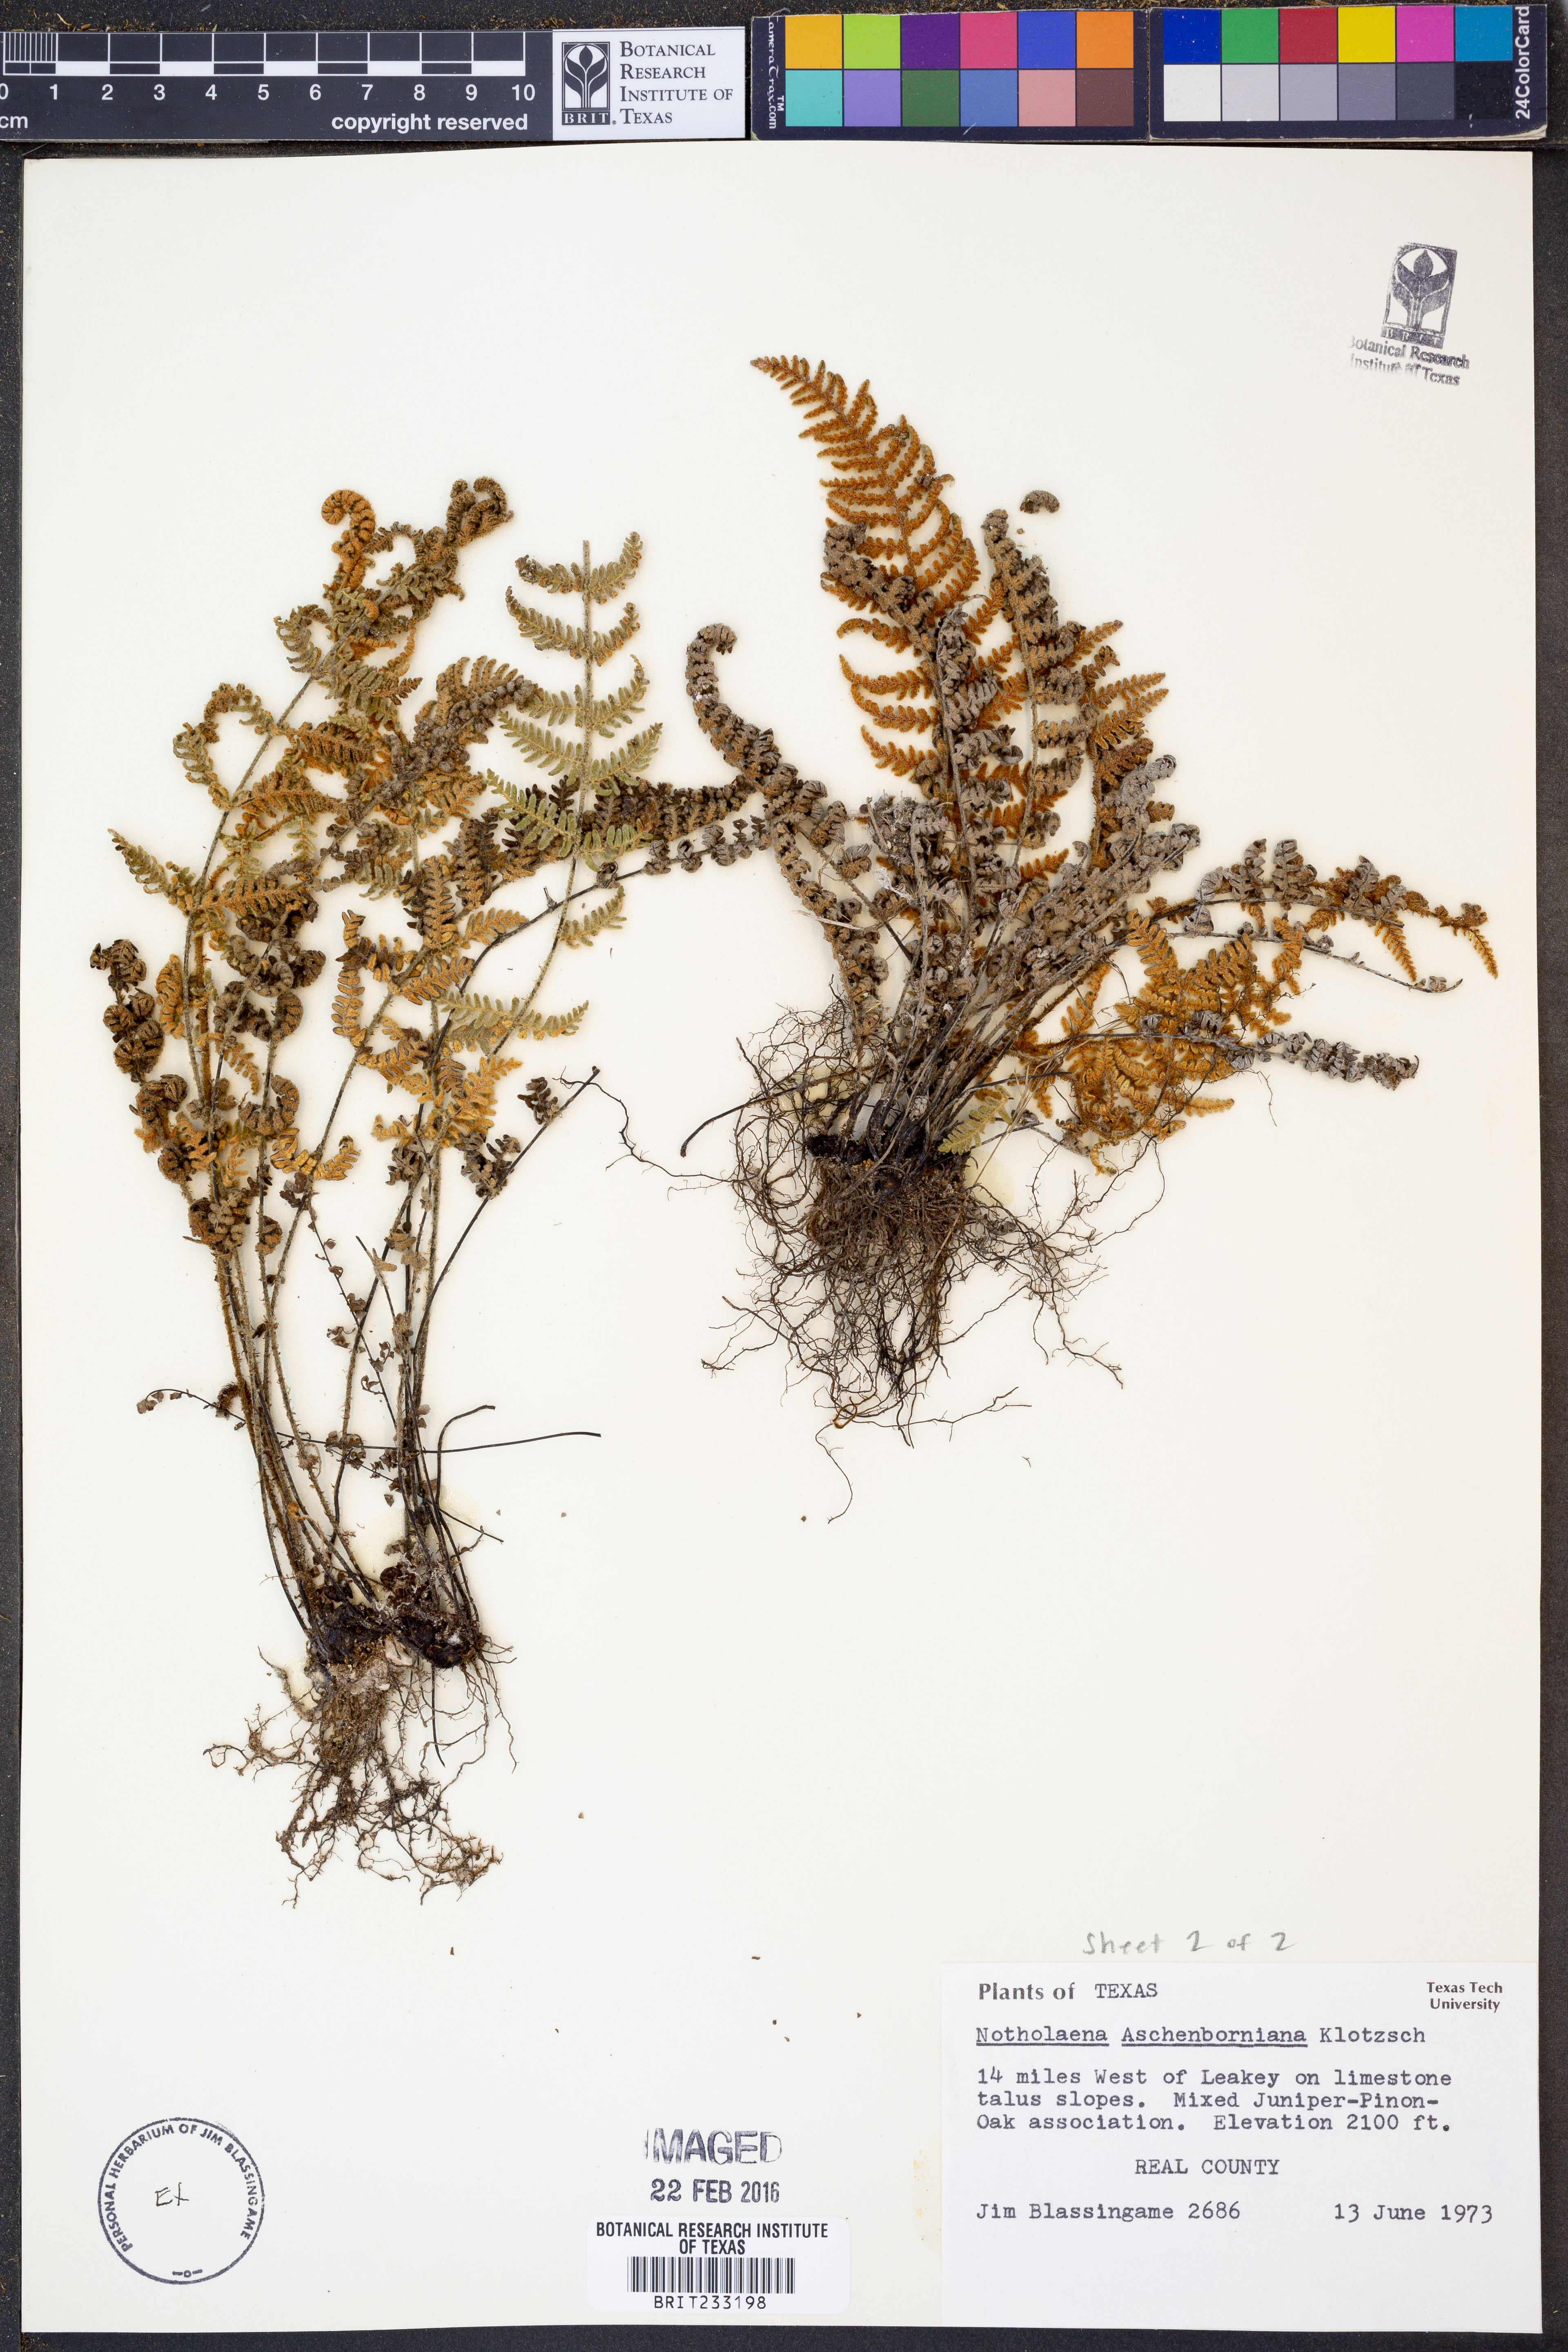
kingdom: Plantae
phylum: Tracheophyta
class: Polypodiopsida
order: Polypodiales
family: Pteridaceae
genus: Notholaena
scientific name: Notholaena aschenborniana
